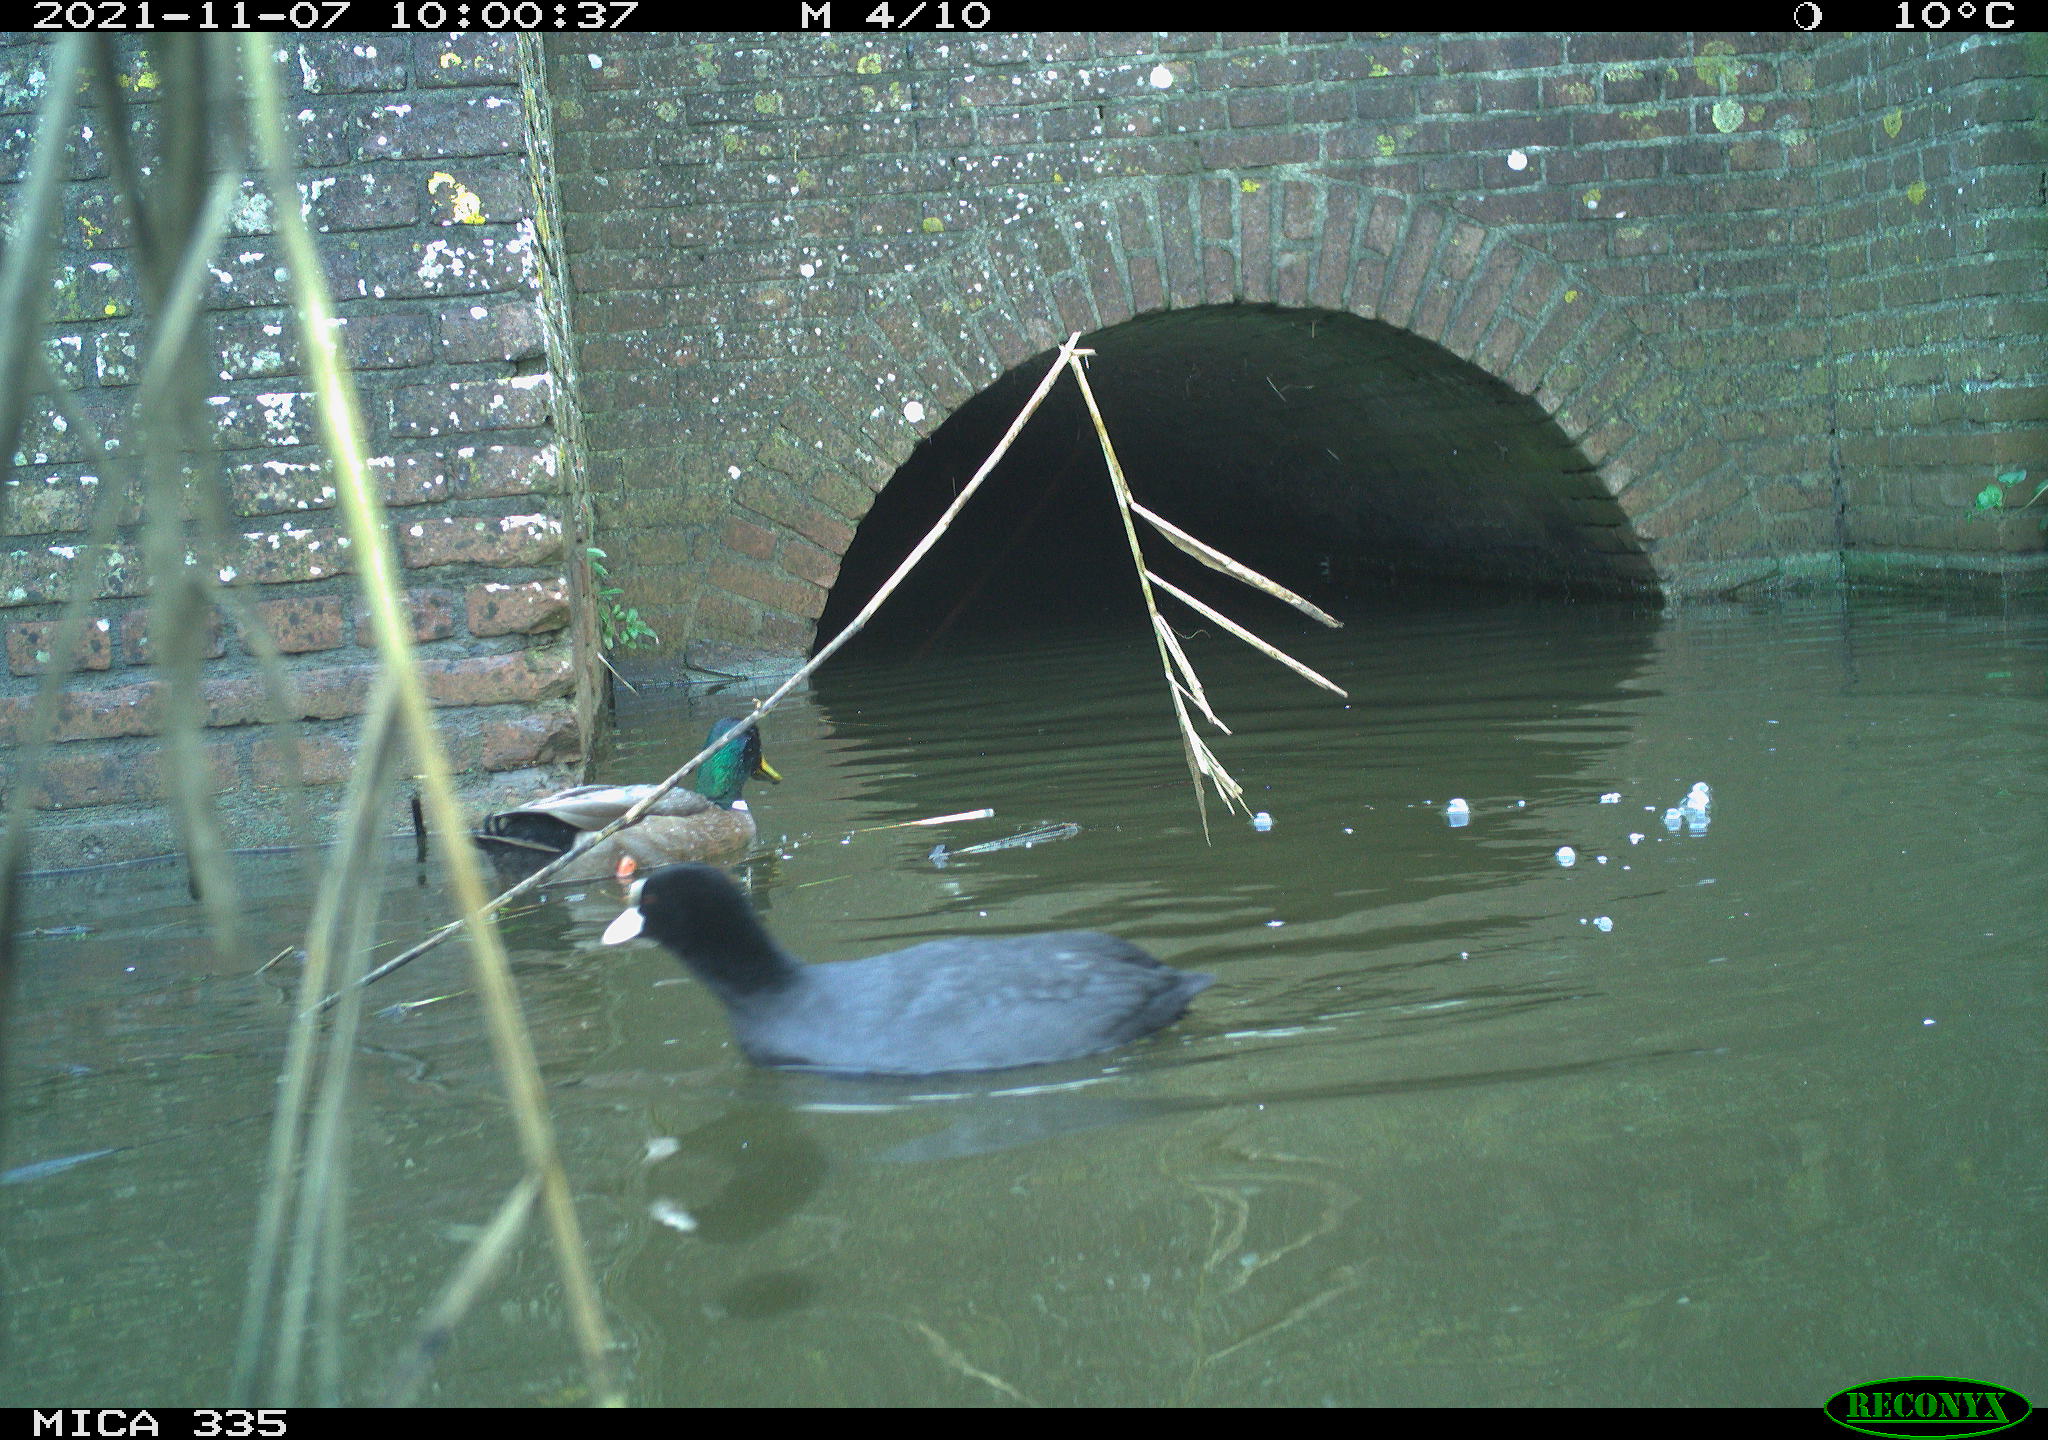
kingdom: Animalia
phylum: Chordata
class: Aves
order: Anseriformes
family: Anatidae
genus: Anas
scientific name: Anas platyrhynchos
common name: Mallard
